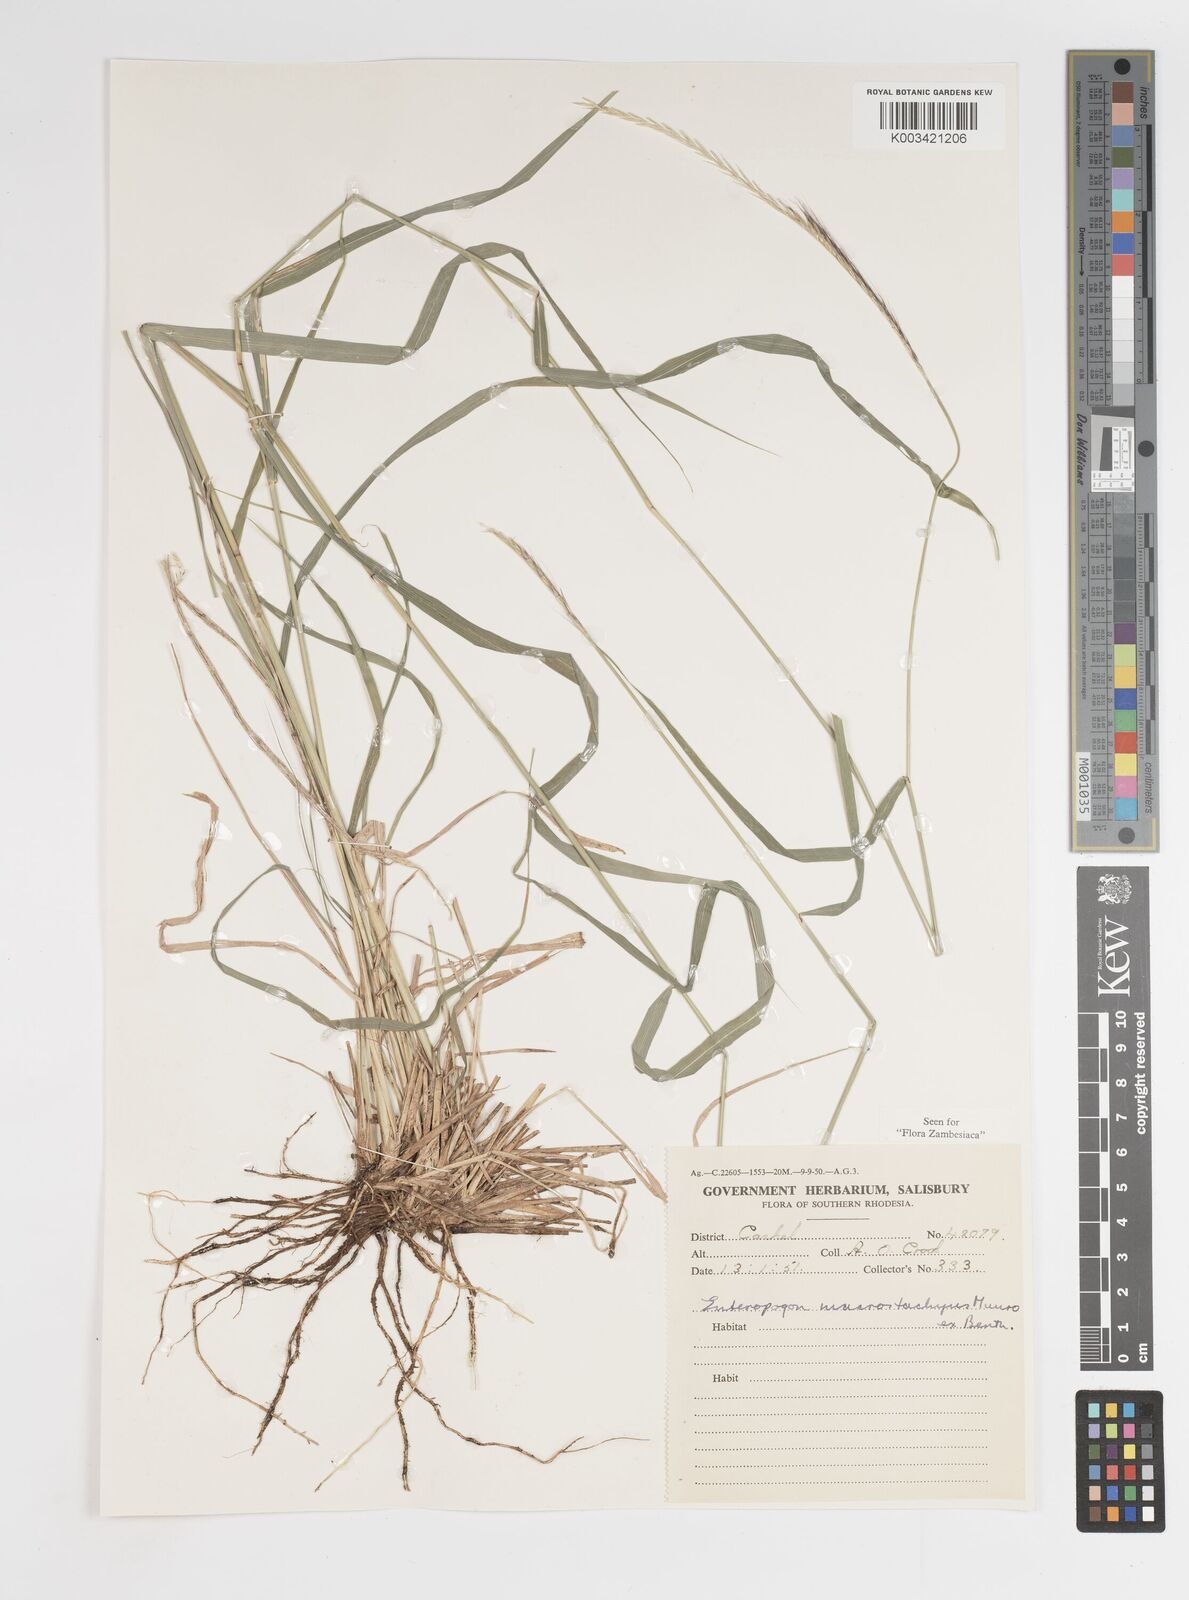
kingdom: Plantae
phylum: Tracheophyta
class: Liliopsida
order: Poales
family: Poaceae
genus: Enteropogon
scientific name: Enteropogon macrostachyus
